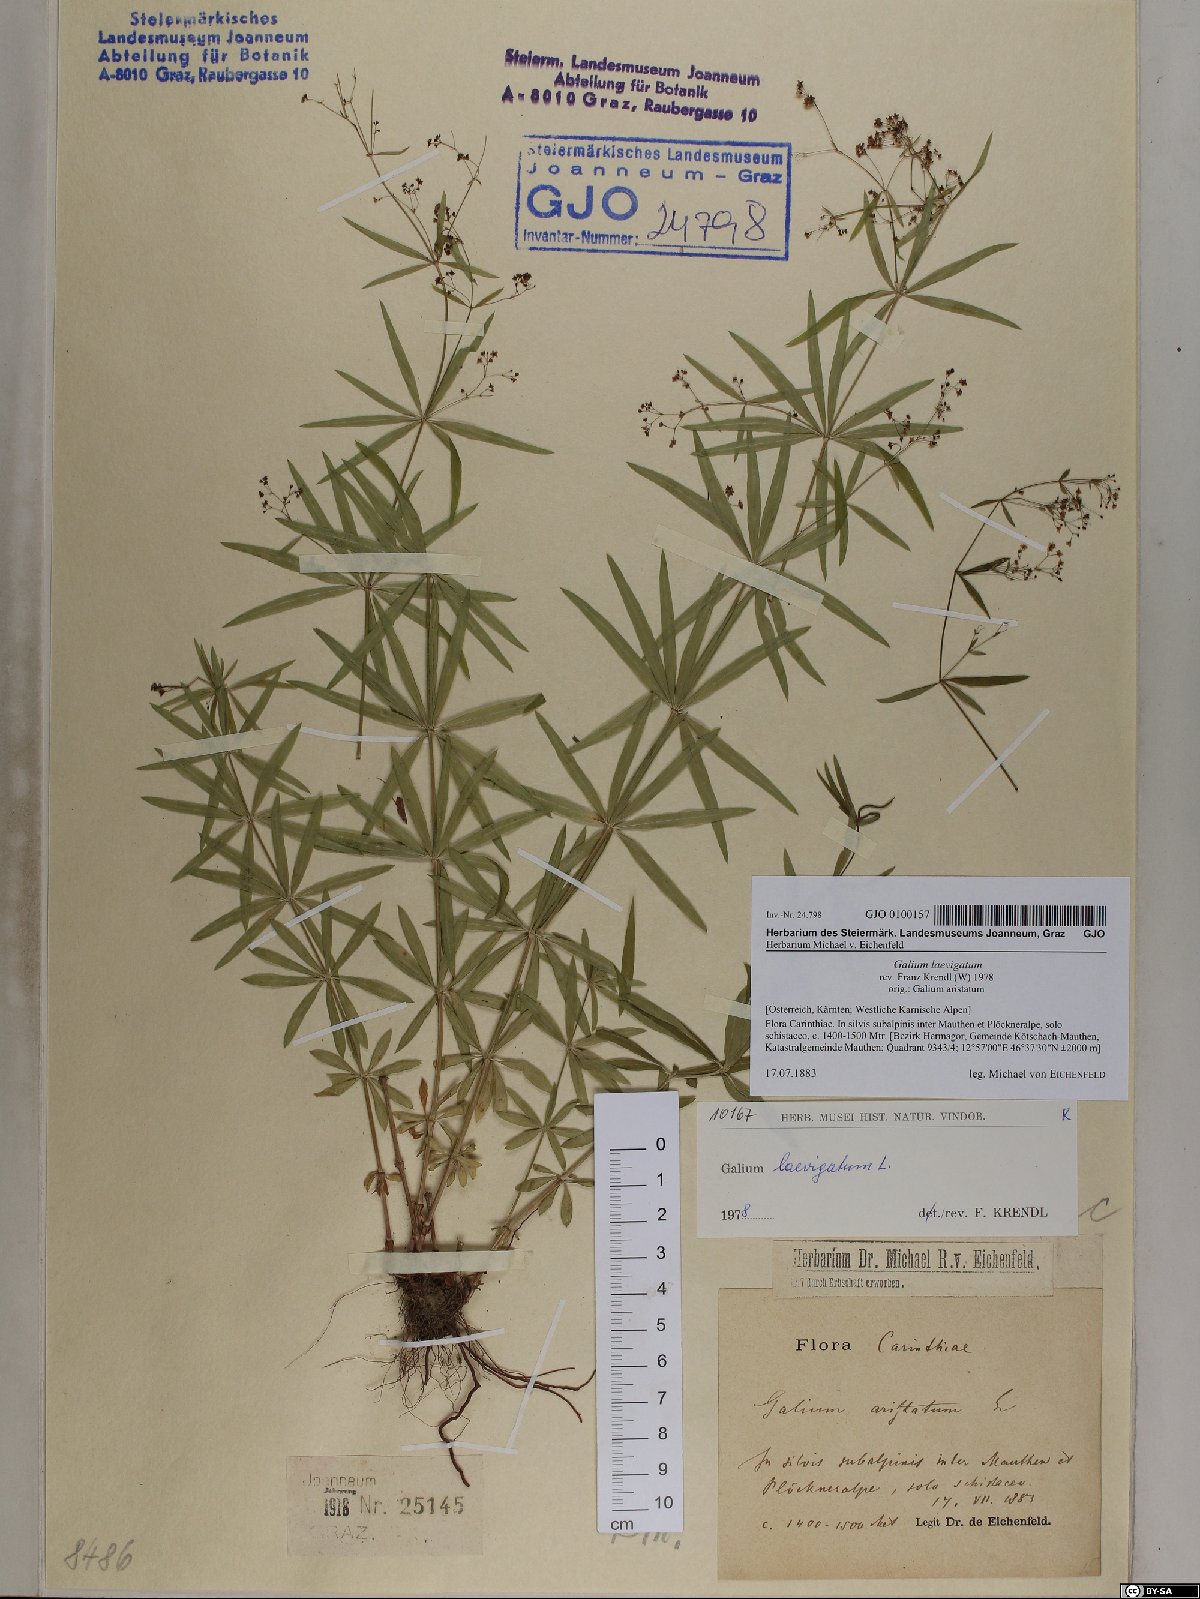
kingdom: Plantae
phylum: Tracheophyta
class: Magnoliopsida
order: Gentianales
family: Rubiaceae
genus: Galium
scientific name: Galium laevigatum
